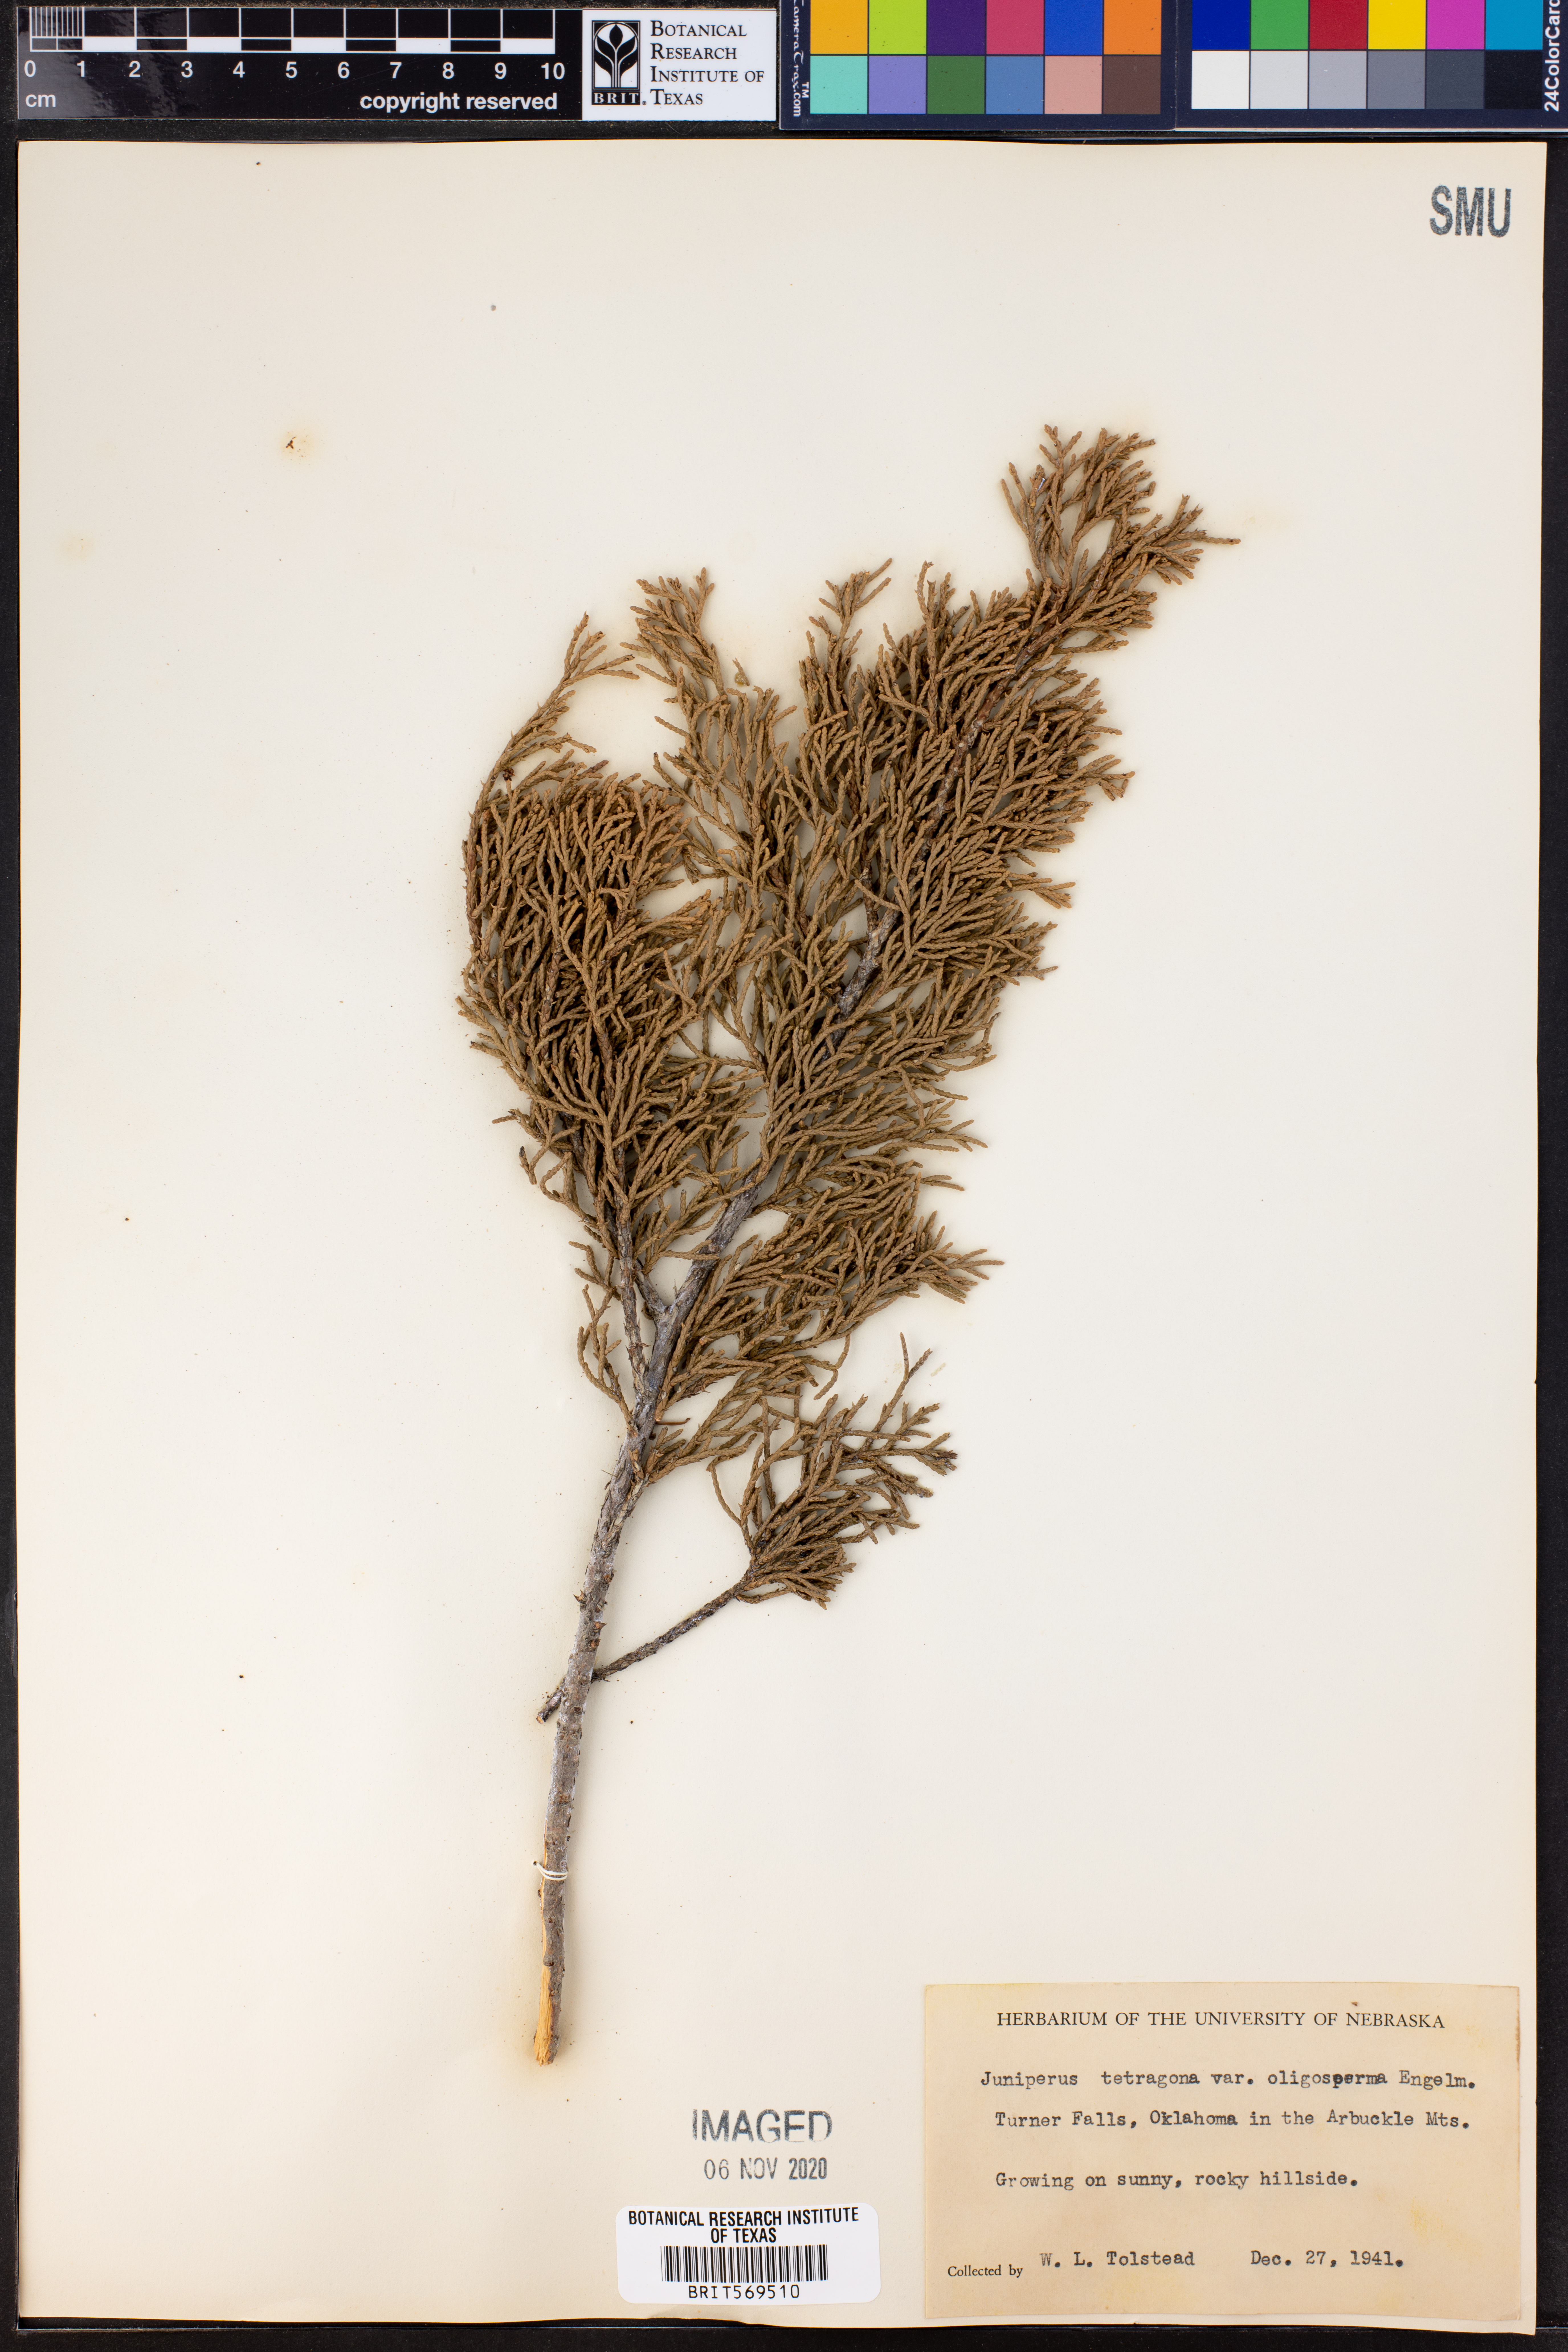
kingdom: Plantae
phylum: Tracheophyta
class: Pinopsida
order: Pinales
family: Cupressaceae
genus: Juniperus
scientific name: Juniperus monticola
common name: Mexican juniper
